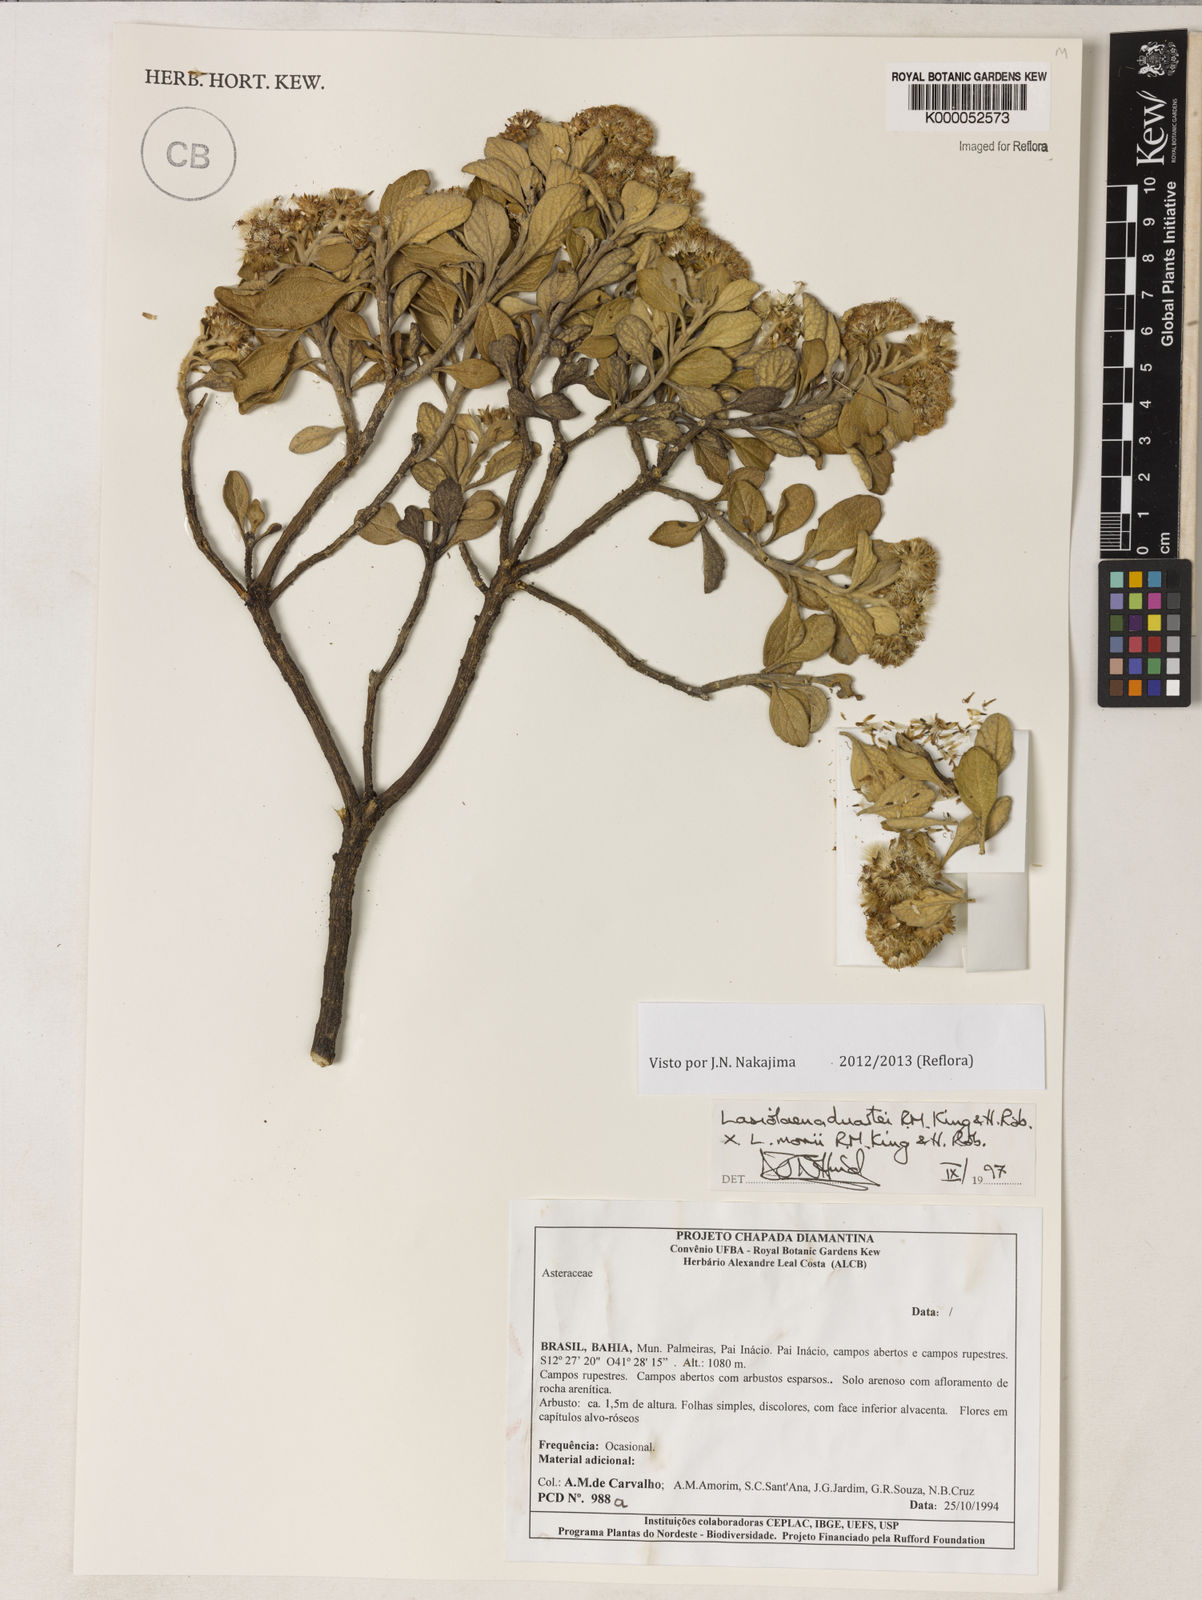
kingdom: Plantae
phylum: Tracheophyta
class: Magnoliopsida
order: Asterales
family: Asteraceae
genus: Lasiolaena
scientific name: Lasiolaena
